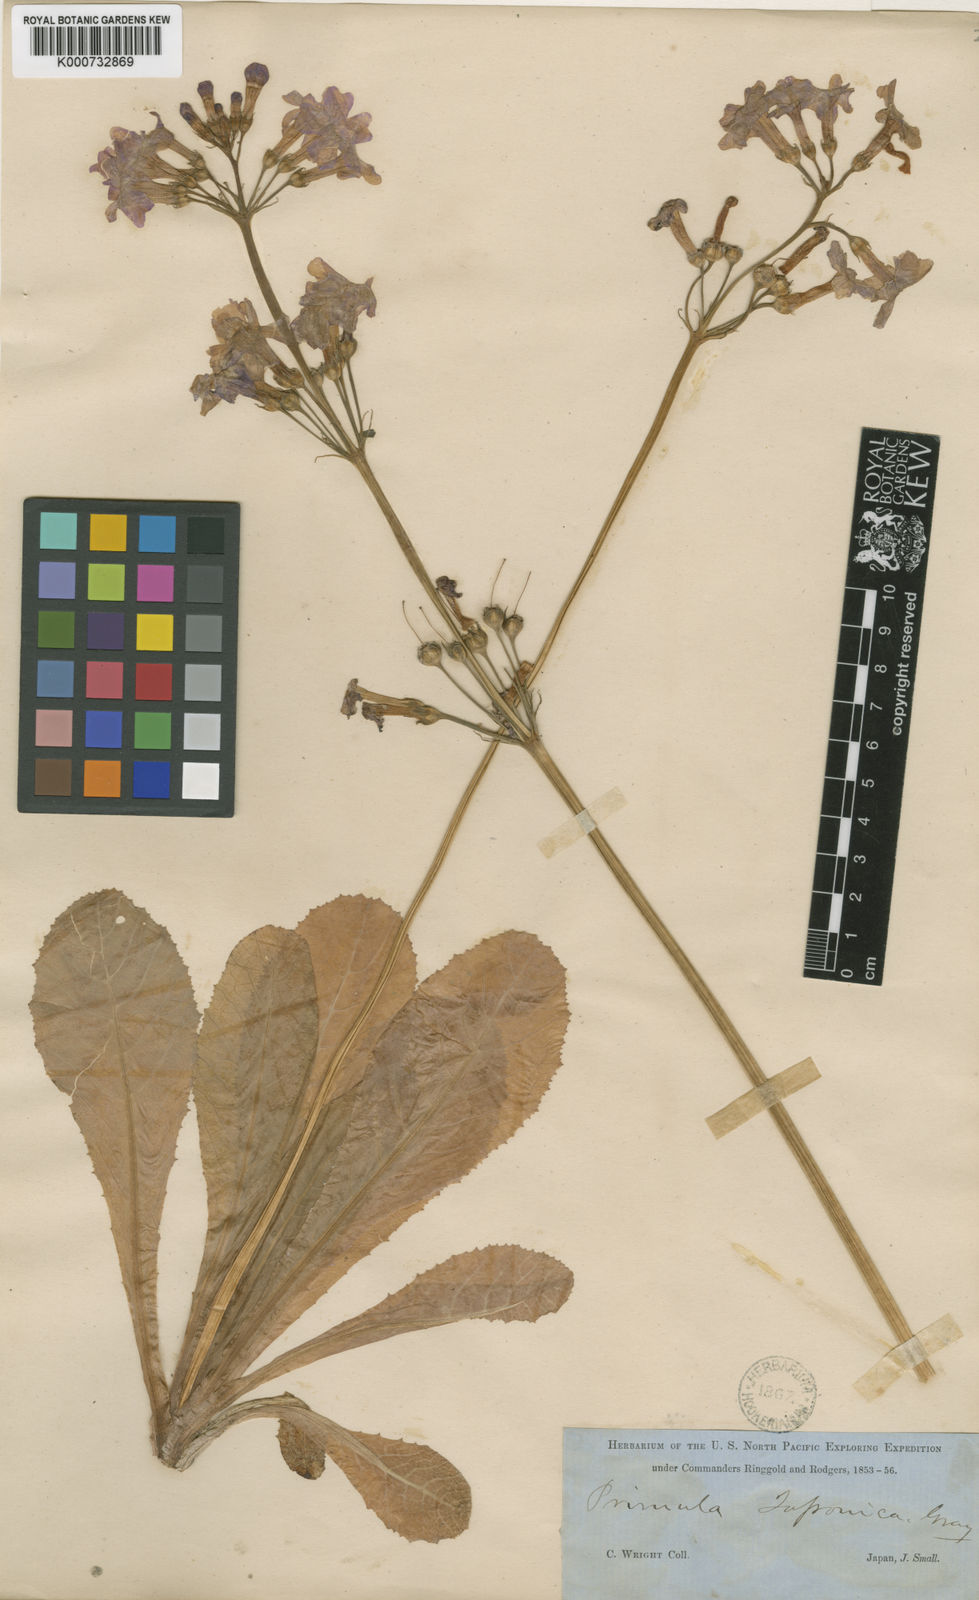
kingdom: Plantae
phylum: Tracheophyta
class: Magnoliopsida
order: Ericales
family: Primulaceae
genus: Primula
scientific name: Primula japonica
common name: Japanese cowslip
